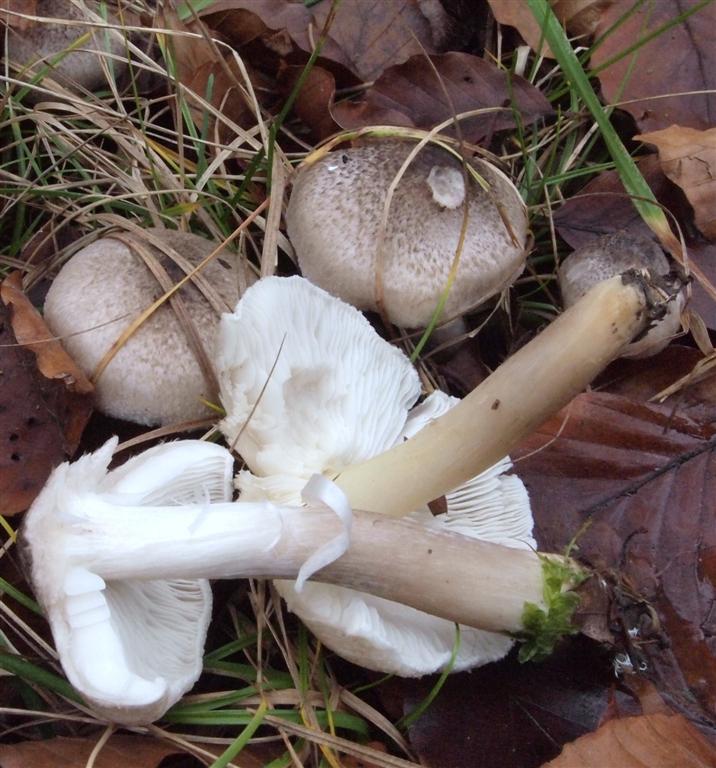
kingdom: Fungi
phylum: Basidiomycota
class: Agaricomycetes
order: Agaricales
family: Tricholomataceae
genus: Tricholoma
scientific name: Tricholoma scalpturatum
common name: gulplettet ridderhat
